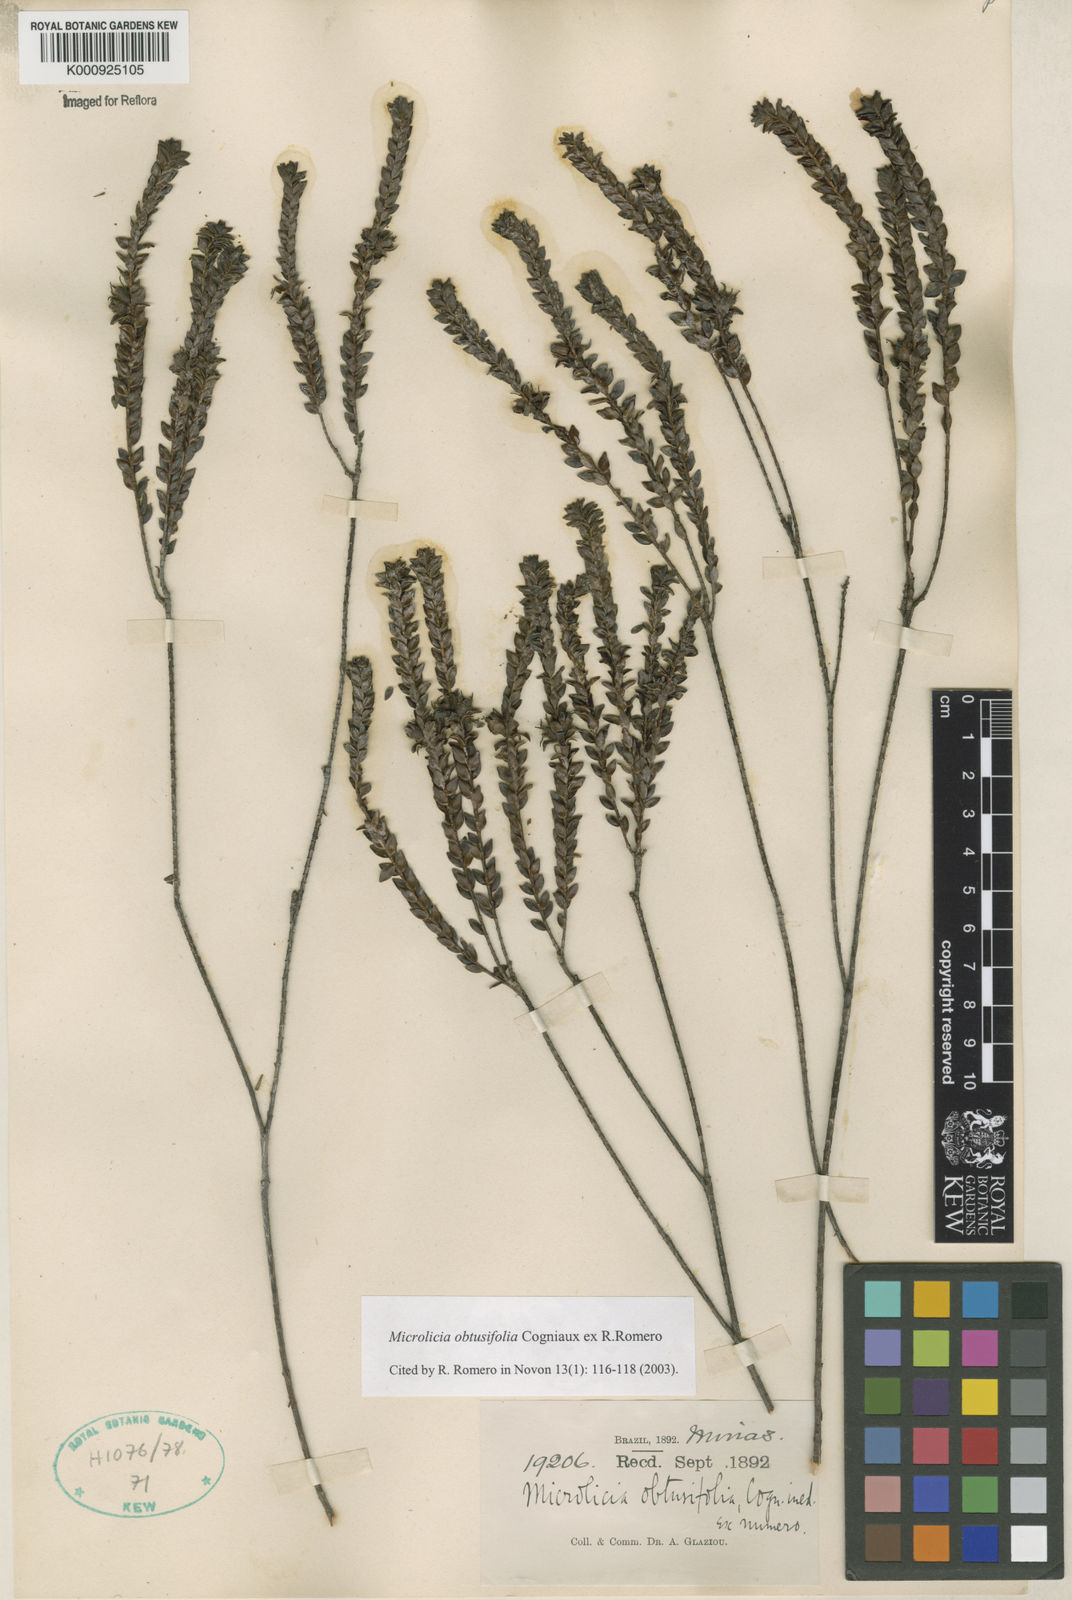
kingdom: Plantae
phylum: Tracheophyta
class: Magnoliopsida
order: Myrtales
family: Melastomataceae
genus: Microlicia
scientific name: Microlicia obtusifolia
